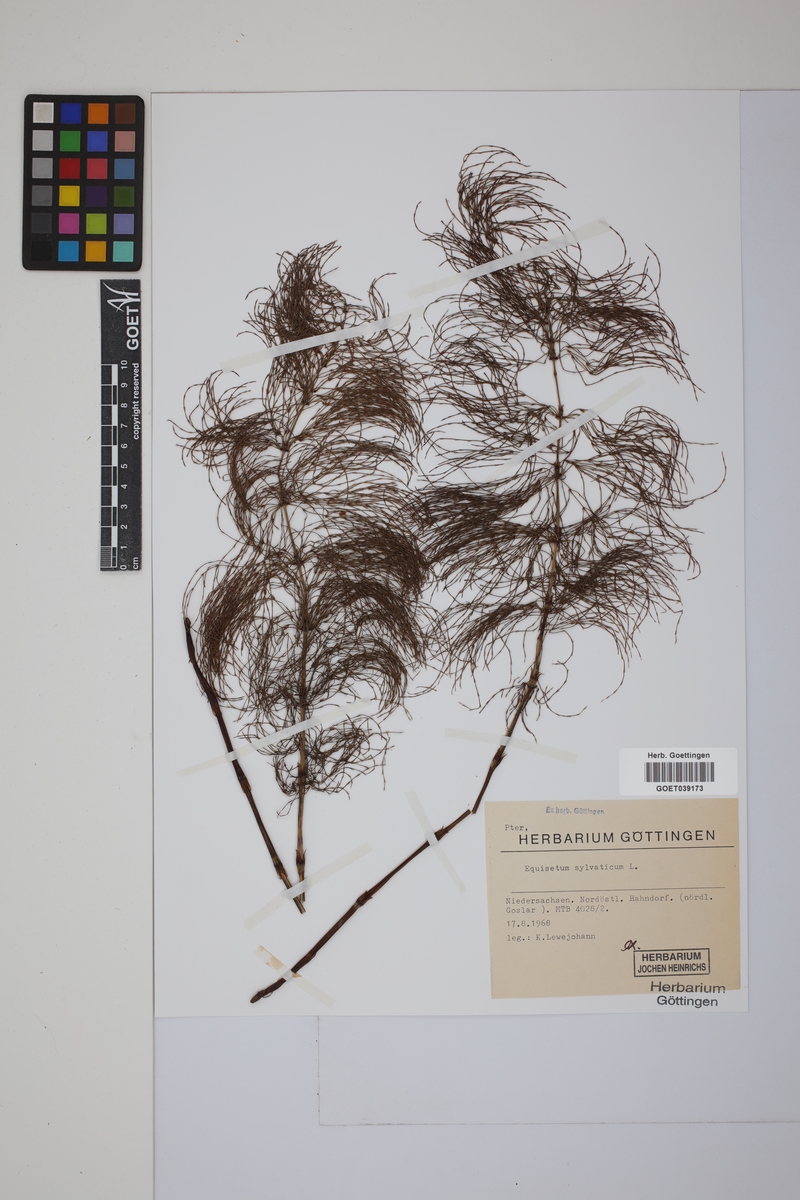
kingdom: Plantae
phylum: Tracheophyta
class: Polypodiopsida
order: Equisetales
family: Equisetaceae
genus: Equisetum
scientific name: Equisetum sylvaticum
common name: Wood horsetail
